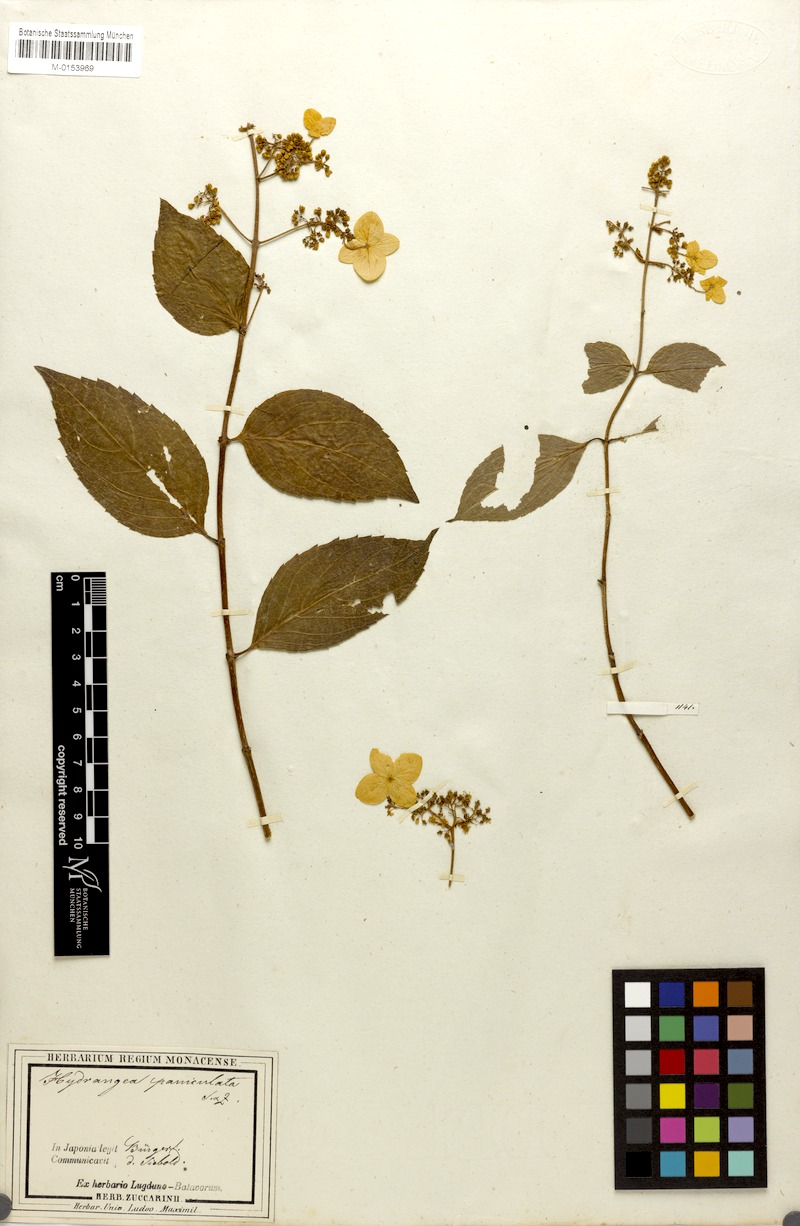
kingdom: Plantae
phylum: Tracheophyta
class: Magnoliopsida
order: Cornales
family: Hydrangeaceae
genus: Hydrangea
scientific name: Hydrangea paniculata
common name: Panicled hydrangea
